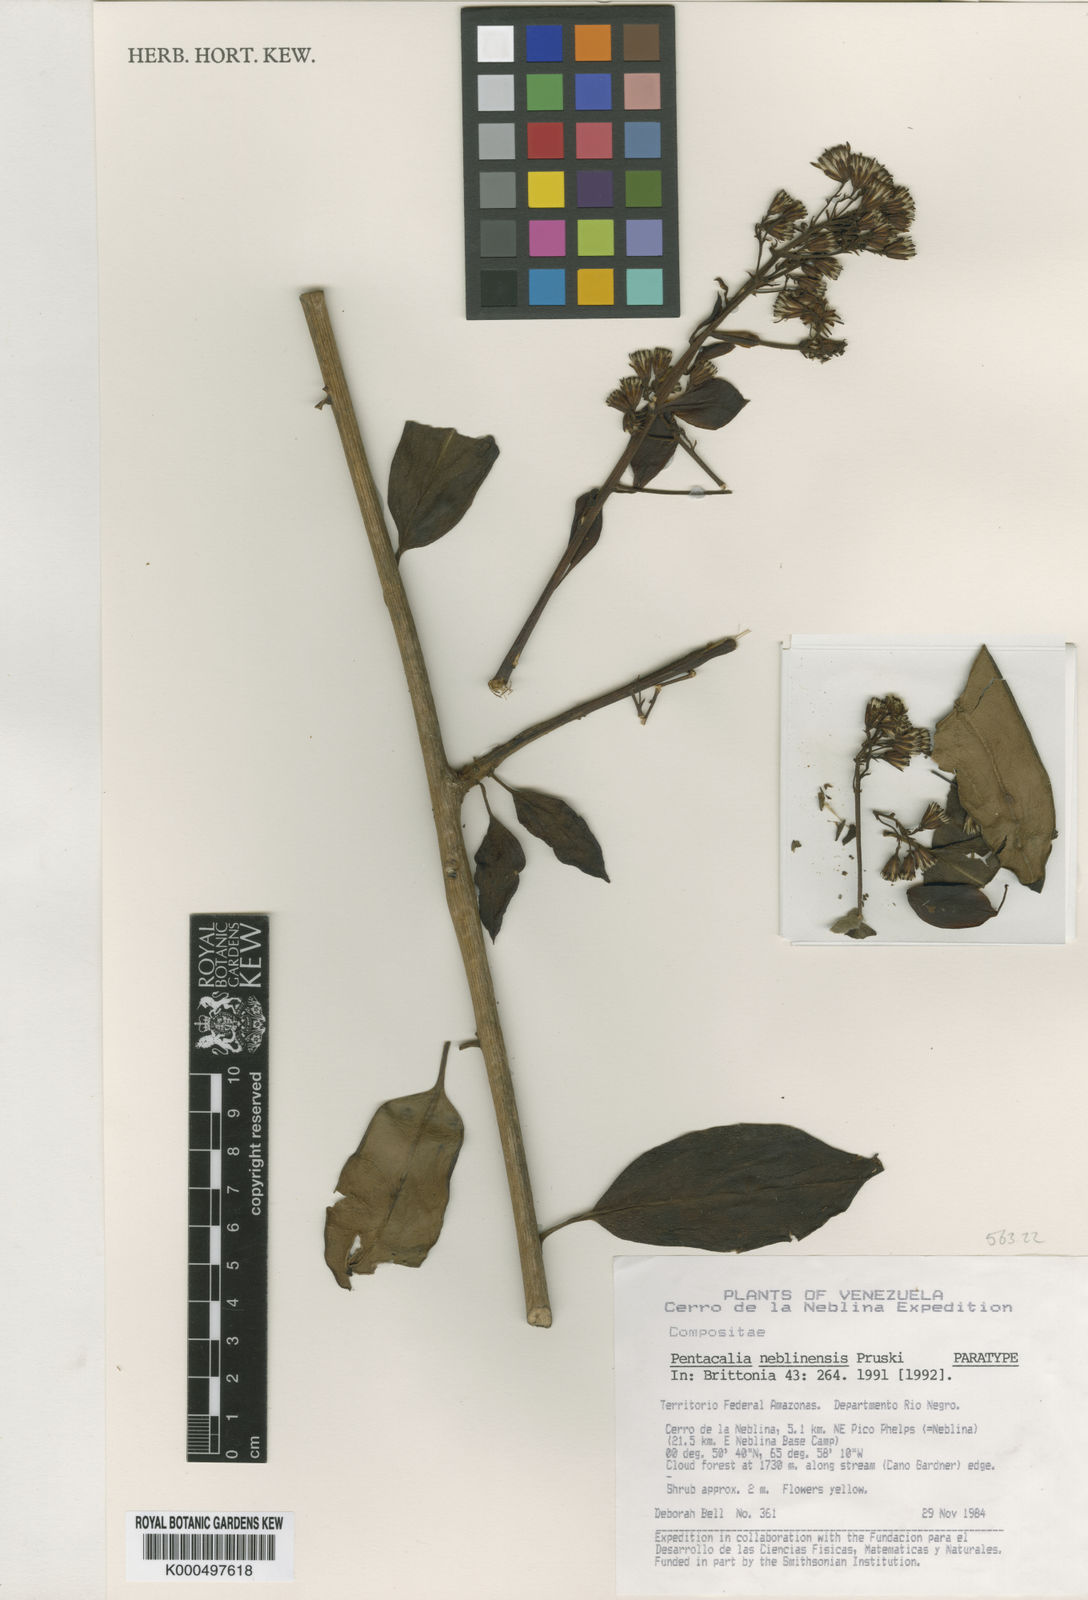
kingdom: Plantae
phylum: Tracheophyta
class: Magnoliopsida
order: Asterales
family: Asteraceae
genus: Pentacalia
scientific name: Pentacalia neblinensis
